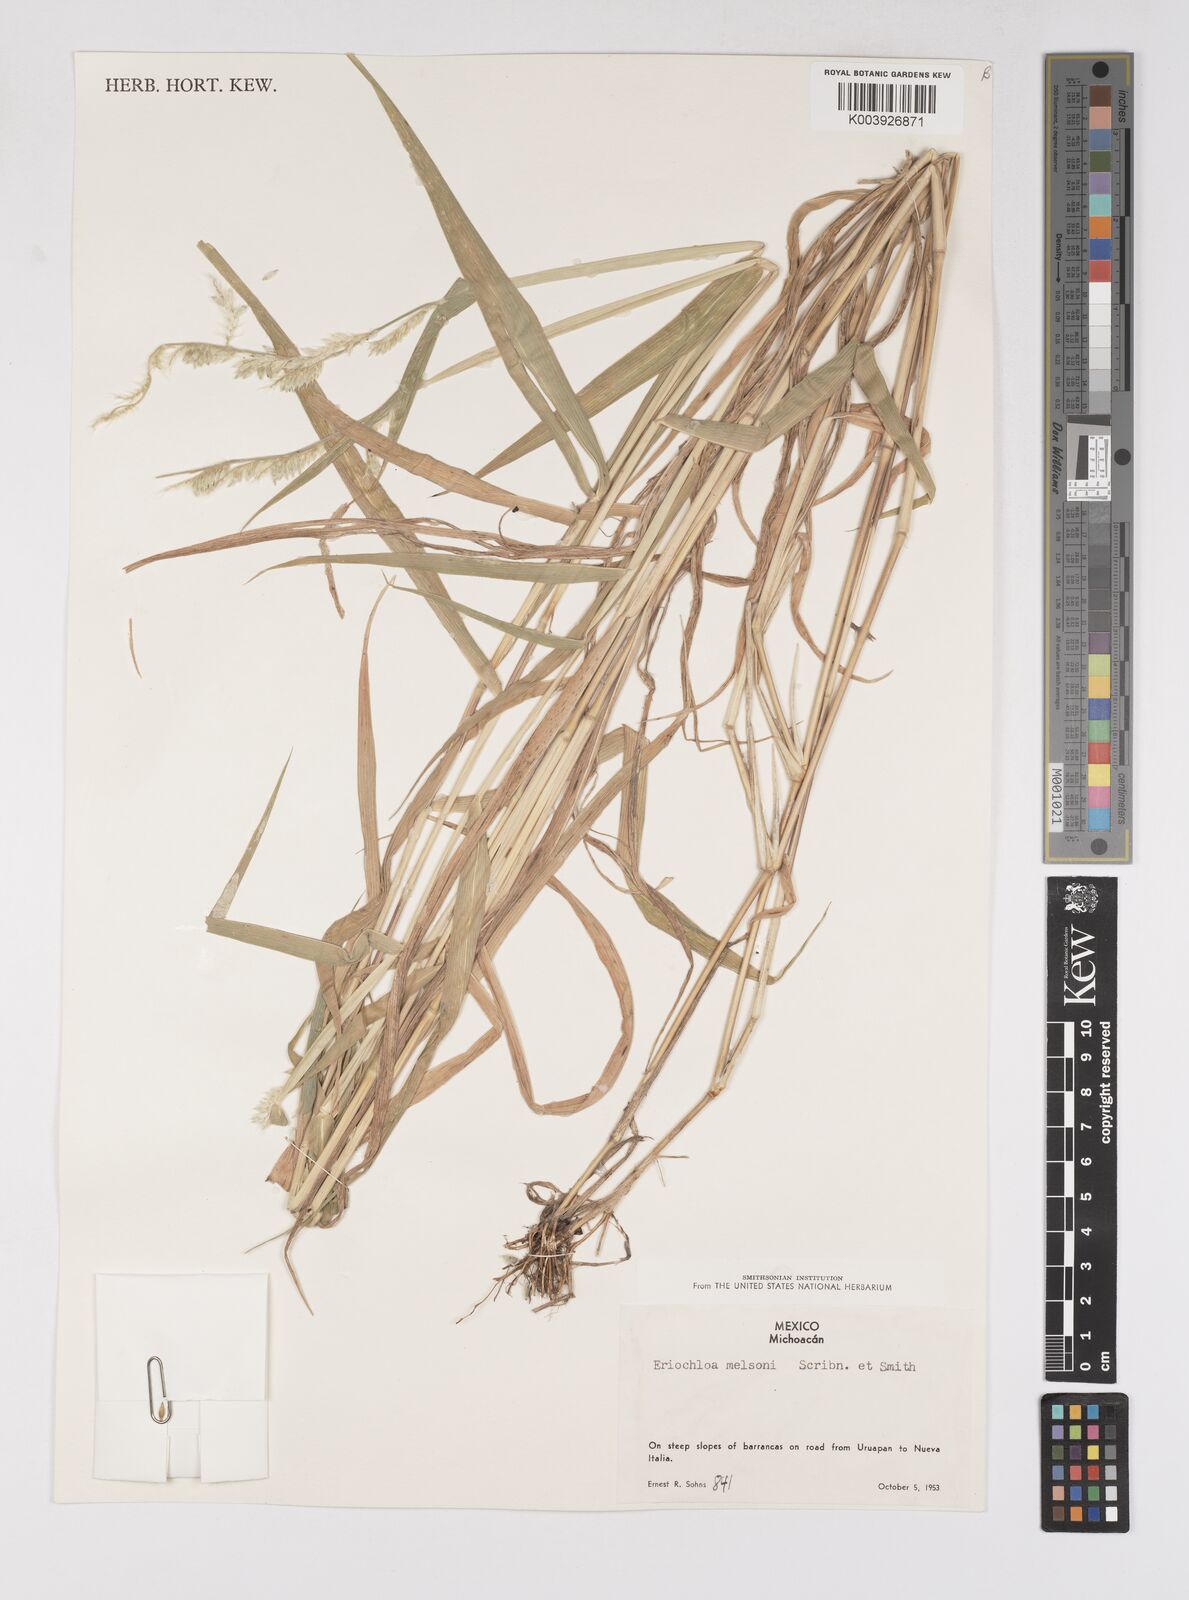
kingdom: Plantae
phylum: Tracheophyta
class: Liliopsida
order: Poales
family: Poaceae
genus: Eriochloa
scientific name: Eriochloa nelsonii
